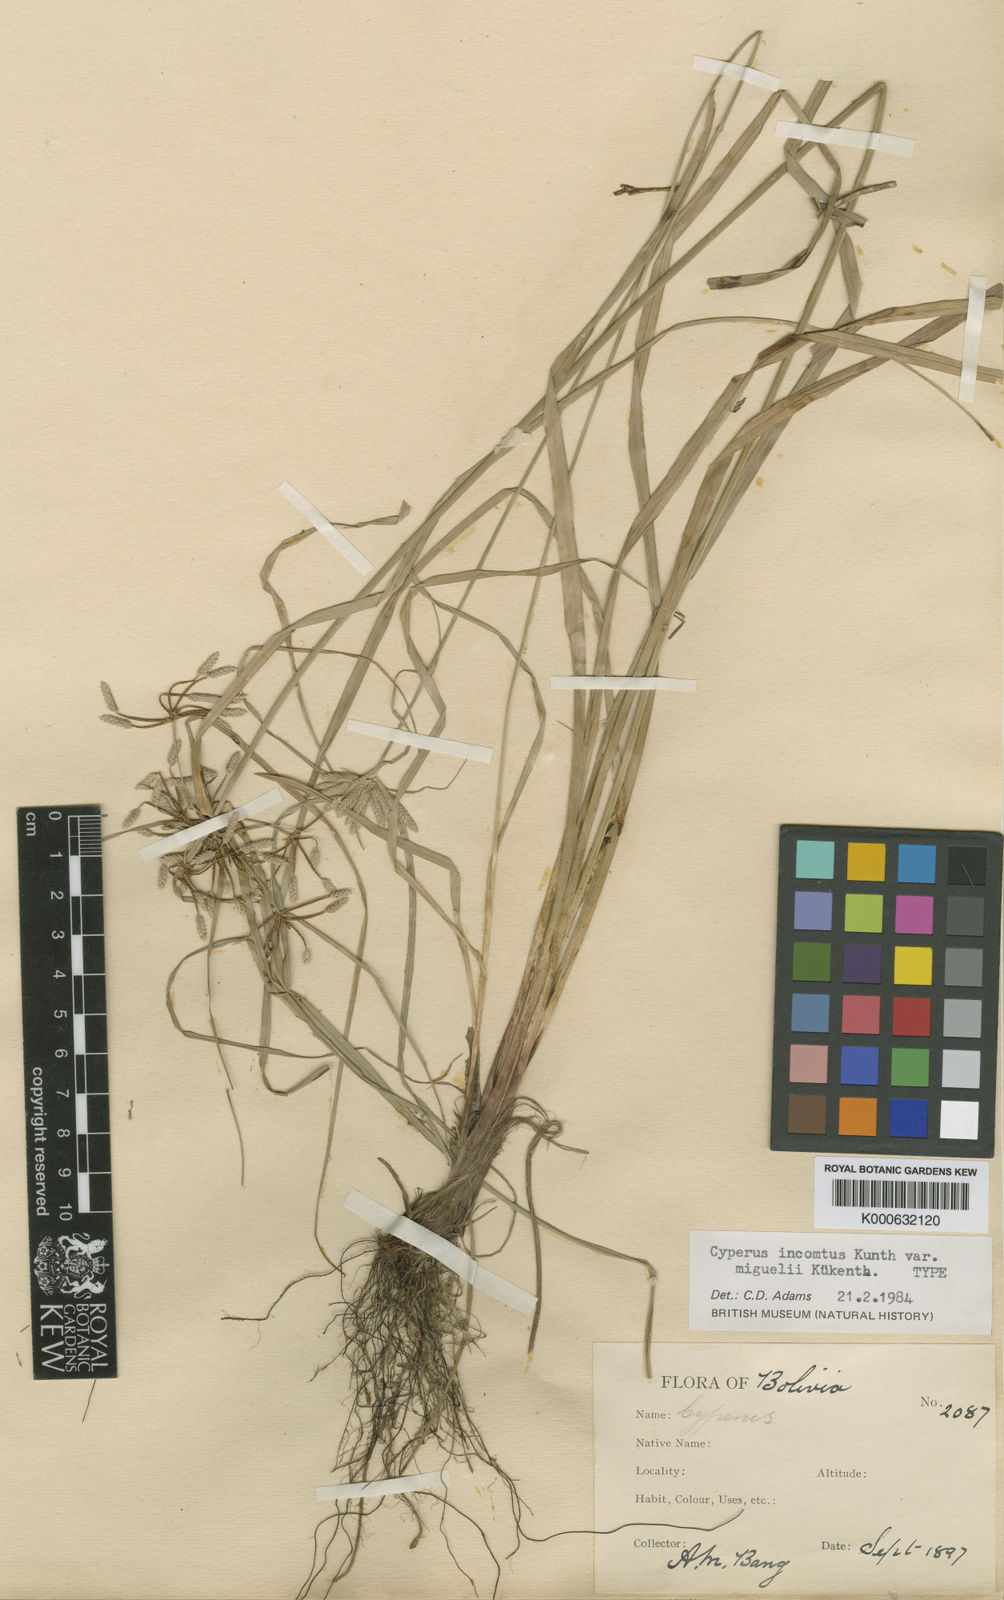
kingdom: Plantae
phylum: Tracheophyta
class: Liliopsida
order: Poales
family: Cyperaceae
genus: Cyperus
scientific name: Cyperus incomtus
